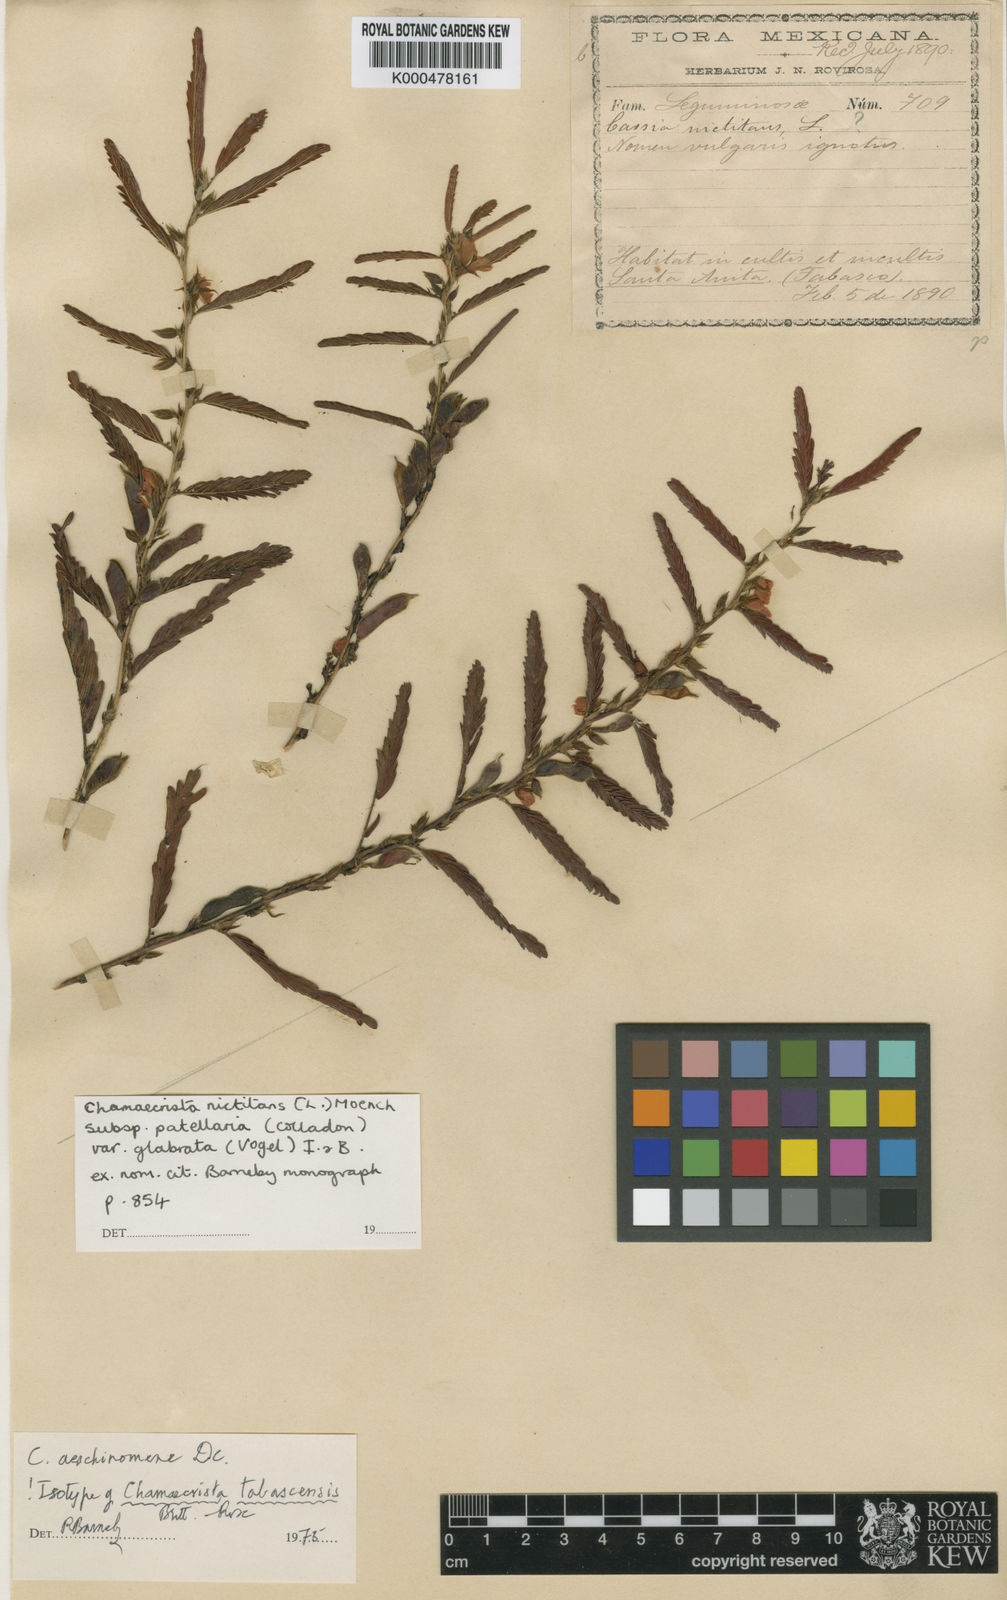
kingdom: Plantae
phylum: Tracheophyta
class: Magnoliopsida
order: Fabales
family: Fabaceae
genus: Chamaecrista
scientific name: Chamaecrista nictitans
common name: Sensitive cassia
